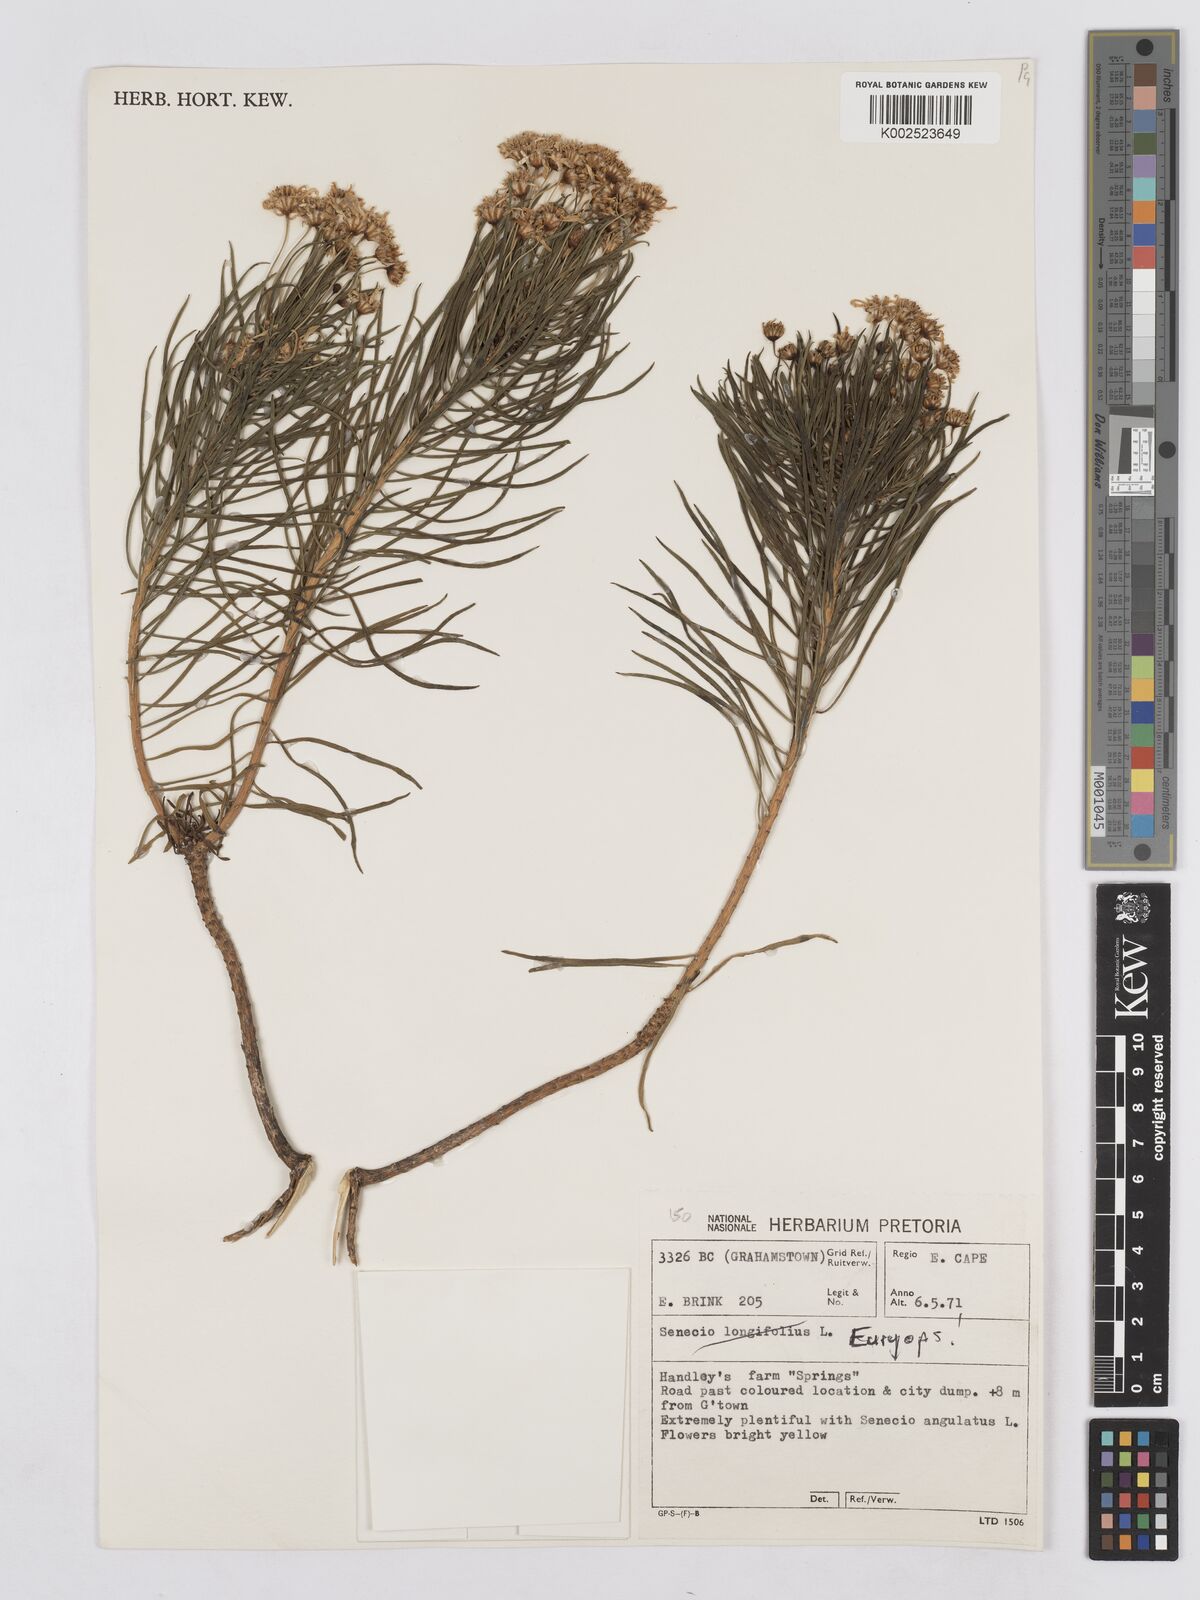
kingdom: Plantae
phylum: Tracheophyta
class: Magnoliopsida
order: Asterales
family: Asteraceae
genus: Senecio
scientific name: Senecio linifolius
